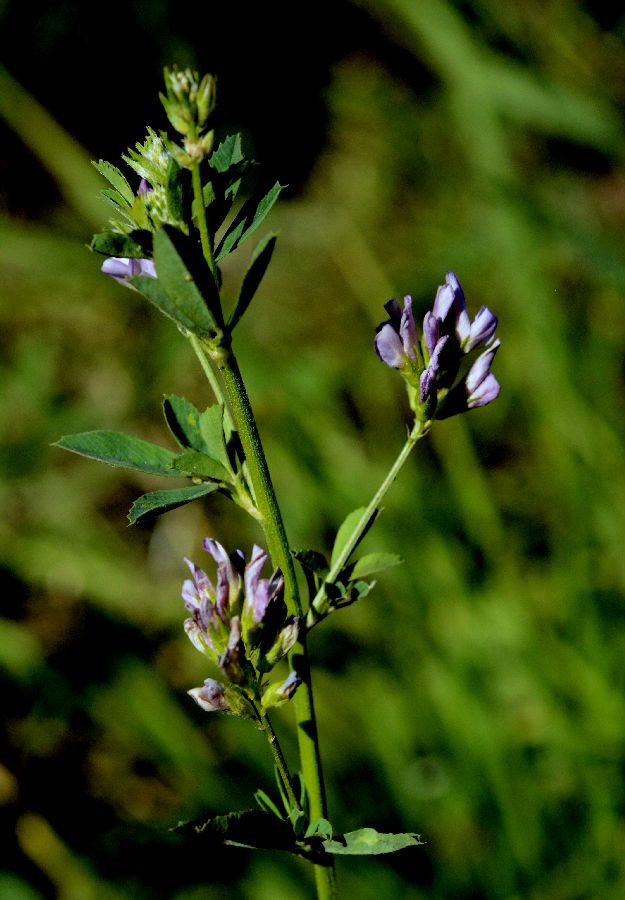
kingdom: Plantae
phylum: Tracheophyta
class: Magnoliopsida
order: Fabales
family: Fabaceae
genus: Medicago
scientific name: Medicago sativa
